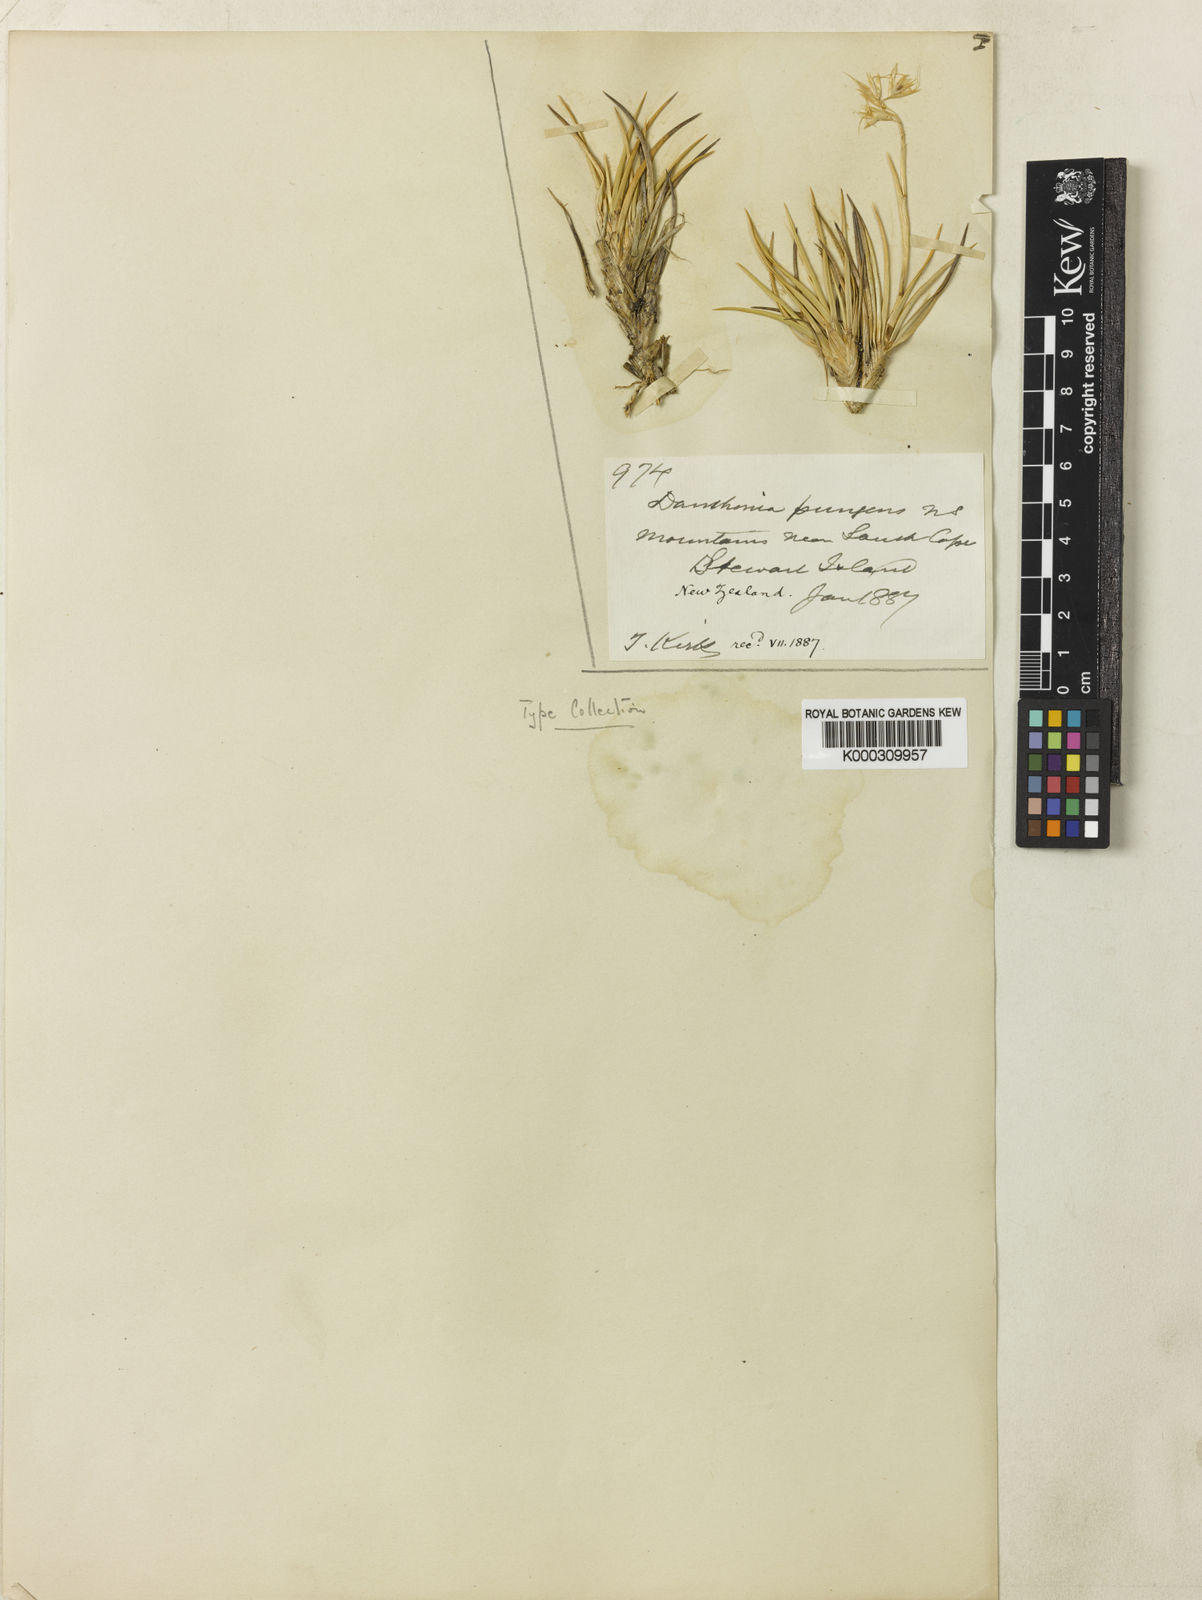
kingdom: Plantae
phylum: Tracheophyta
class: Liliopsida
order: Poales
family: Poaceae
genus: Chionochloa
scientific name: Chionochloa crassiuscula
